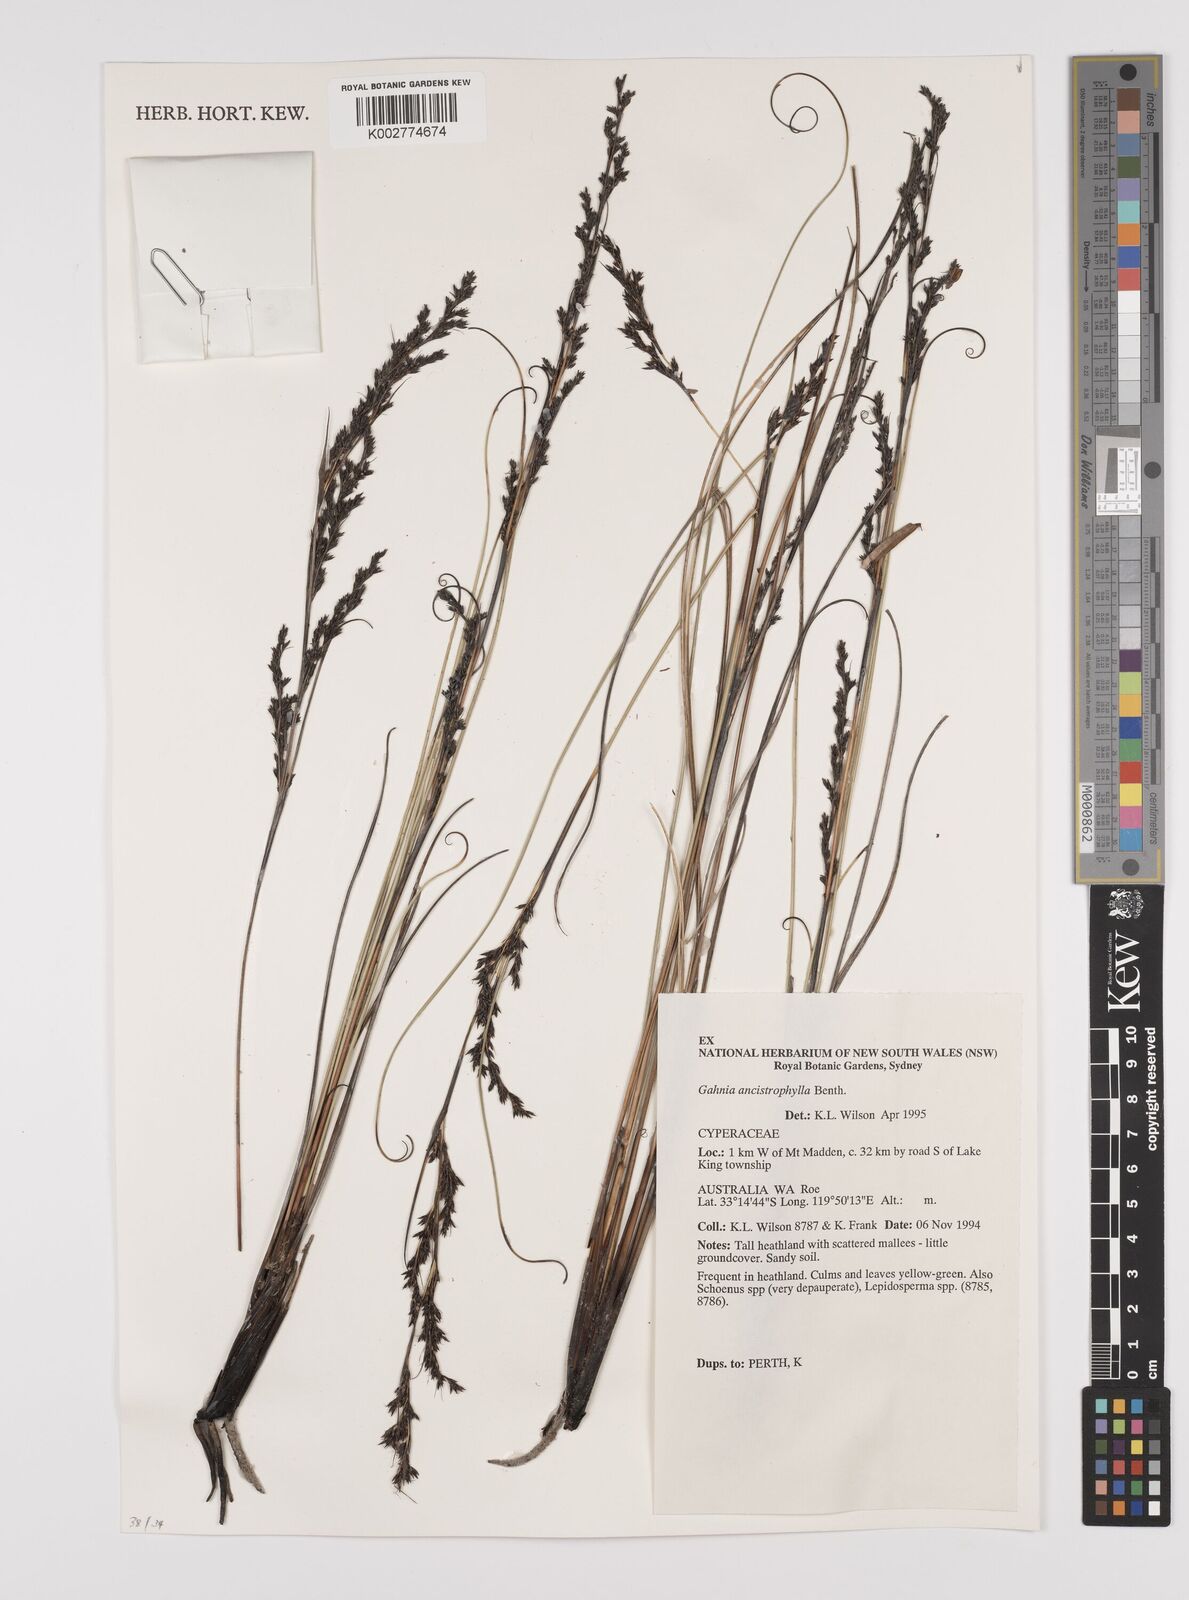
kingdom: Plantae
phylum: Tracheophyta
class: Liliopsida
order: Poales
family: Cyperaceae
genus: Gahnia
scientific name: Gahnia ancistrophylla
